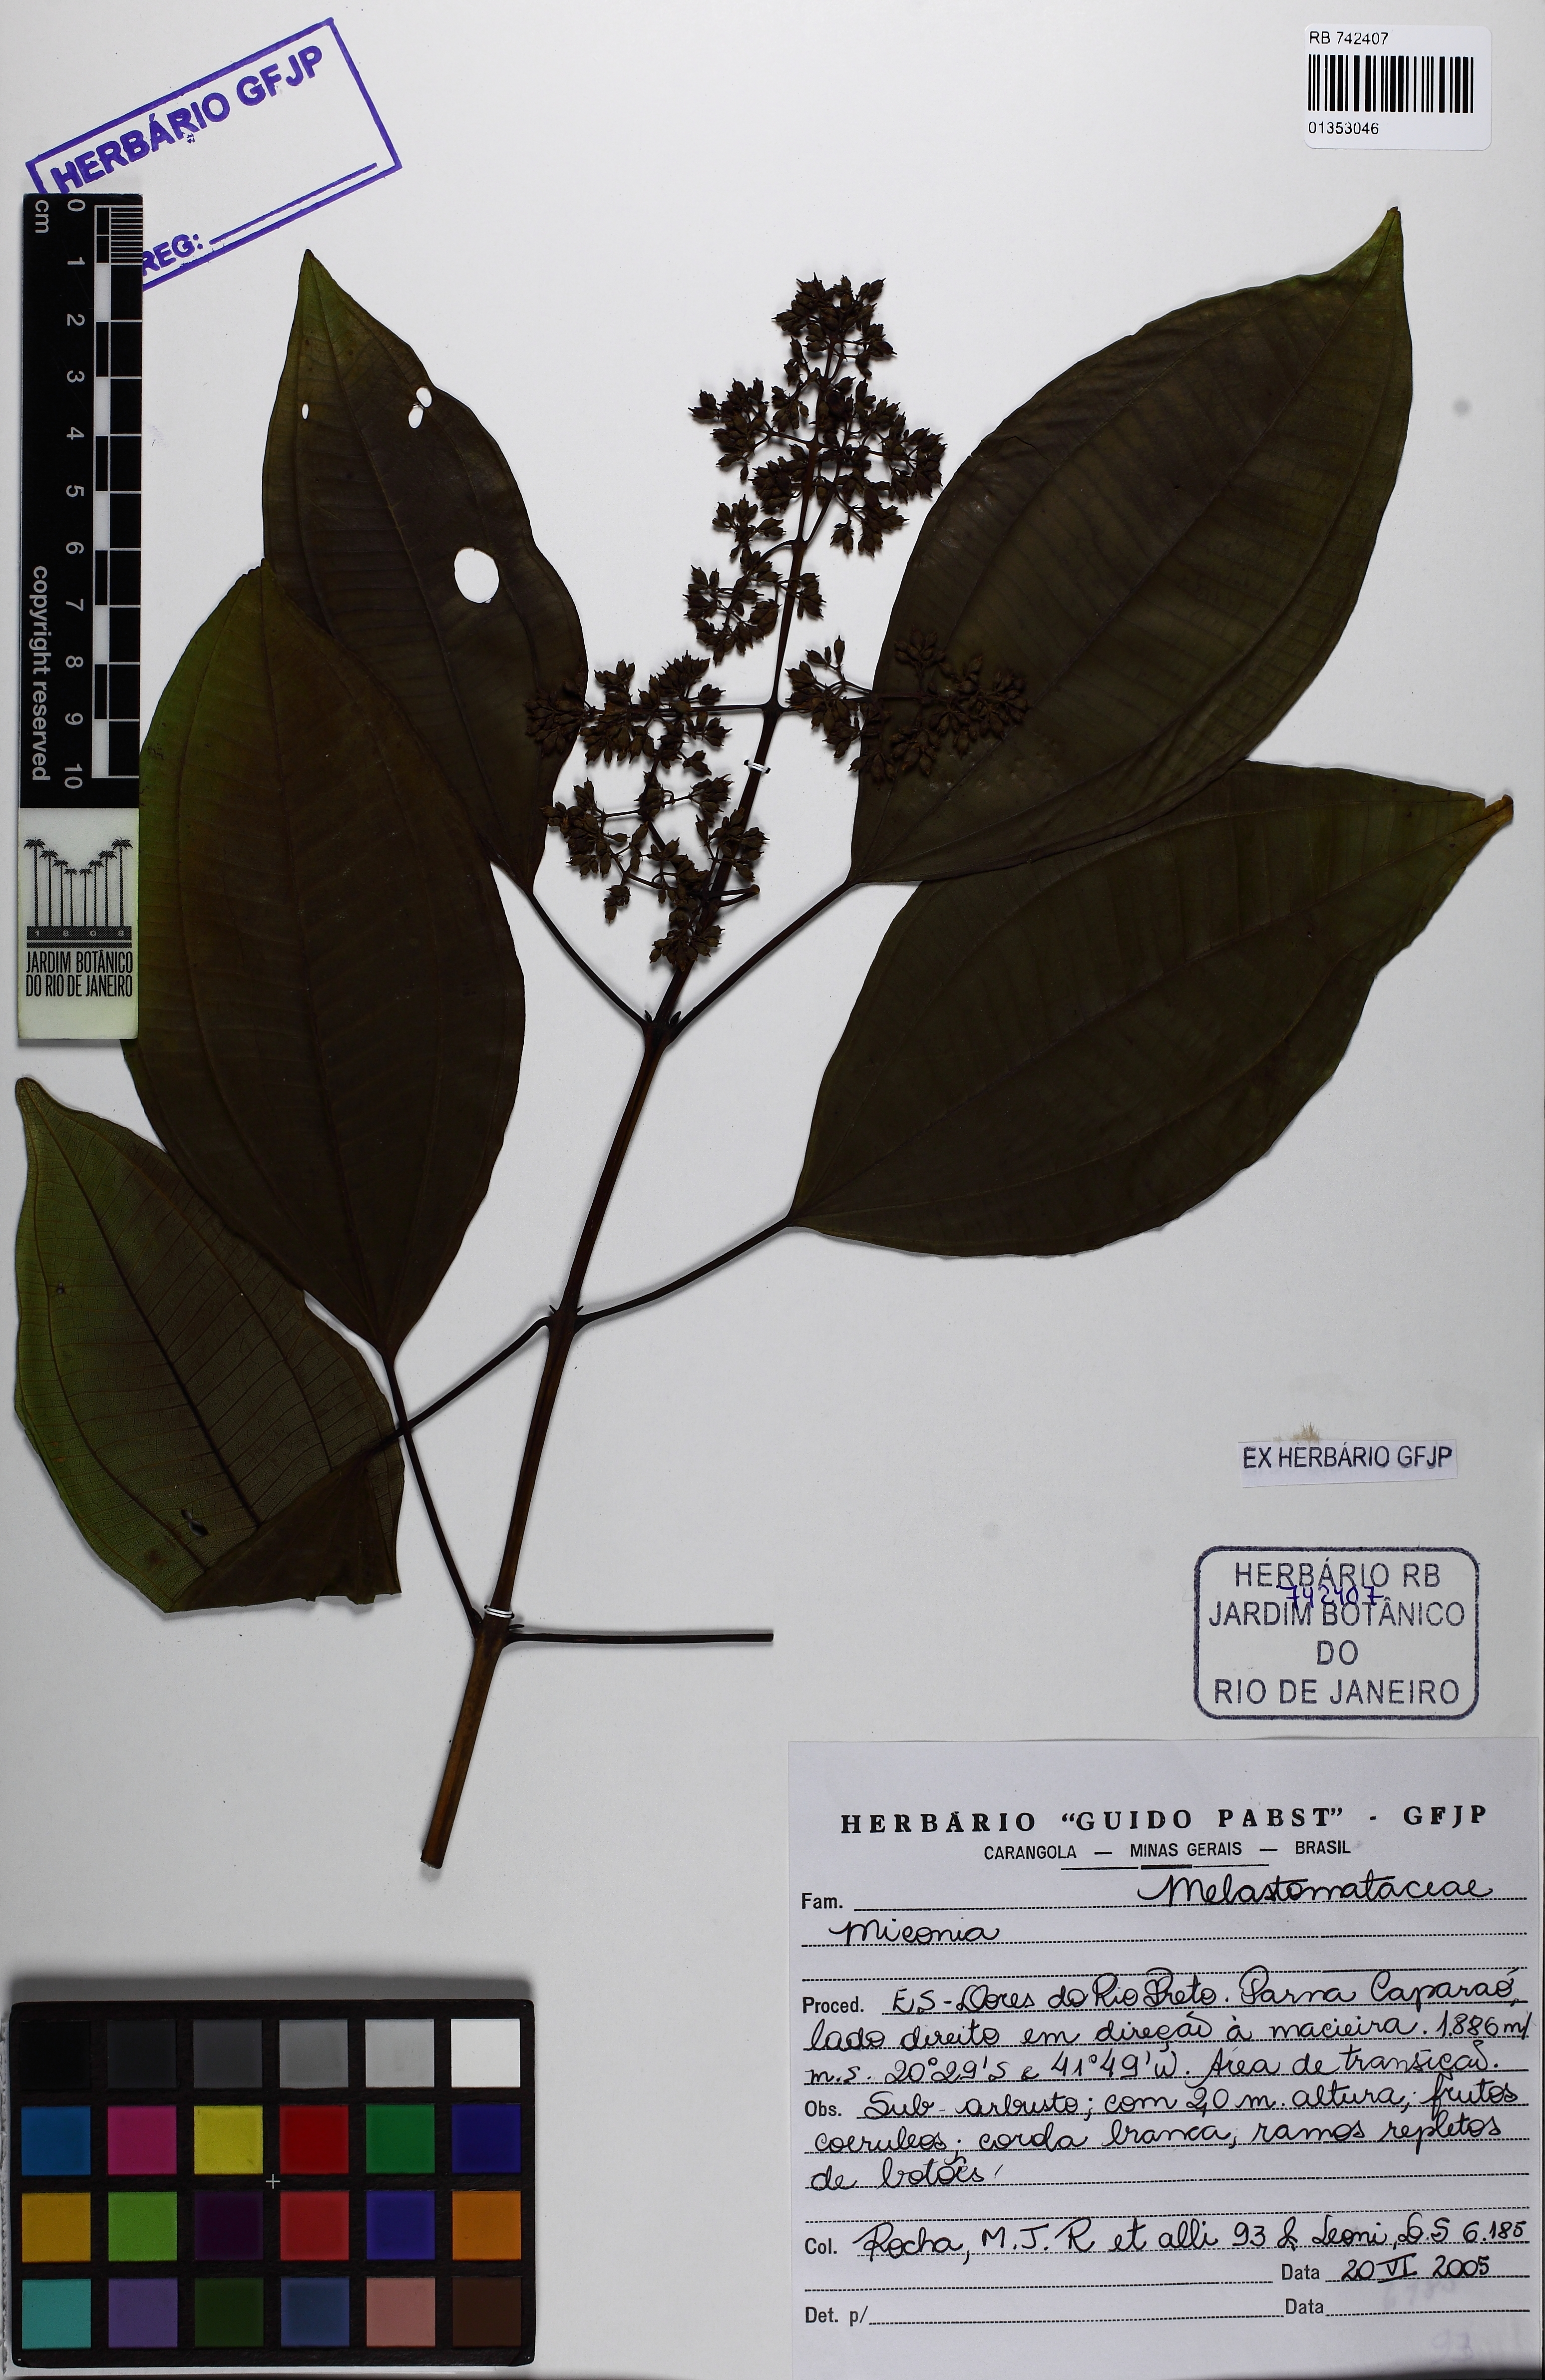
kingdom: Plantae
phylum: Tracheophyta
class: Magnoliopsida
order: Myrtales
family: Melastomataceae
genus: Miconia
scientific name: Miconia
